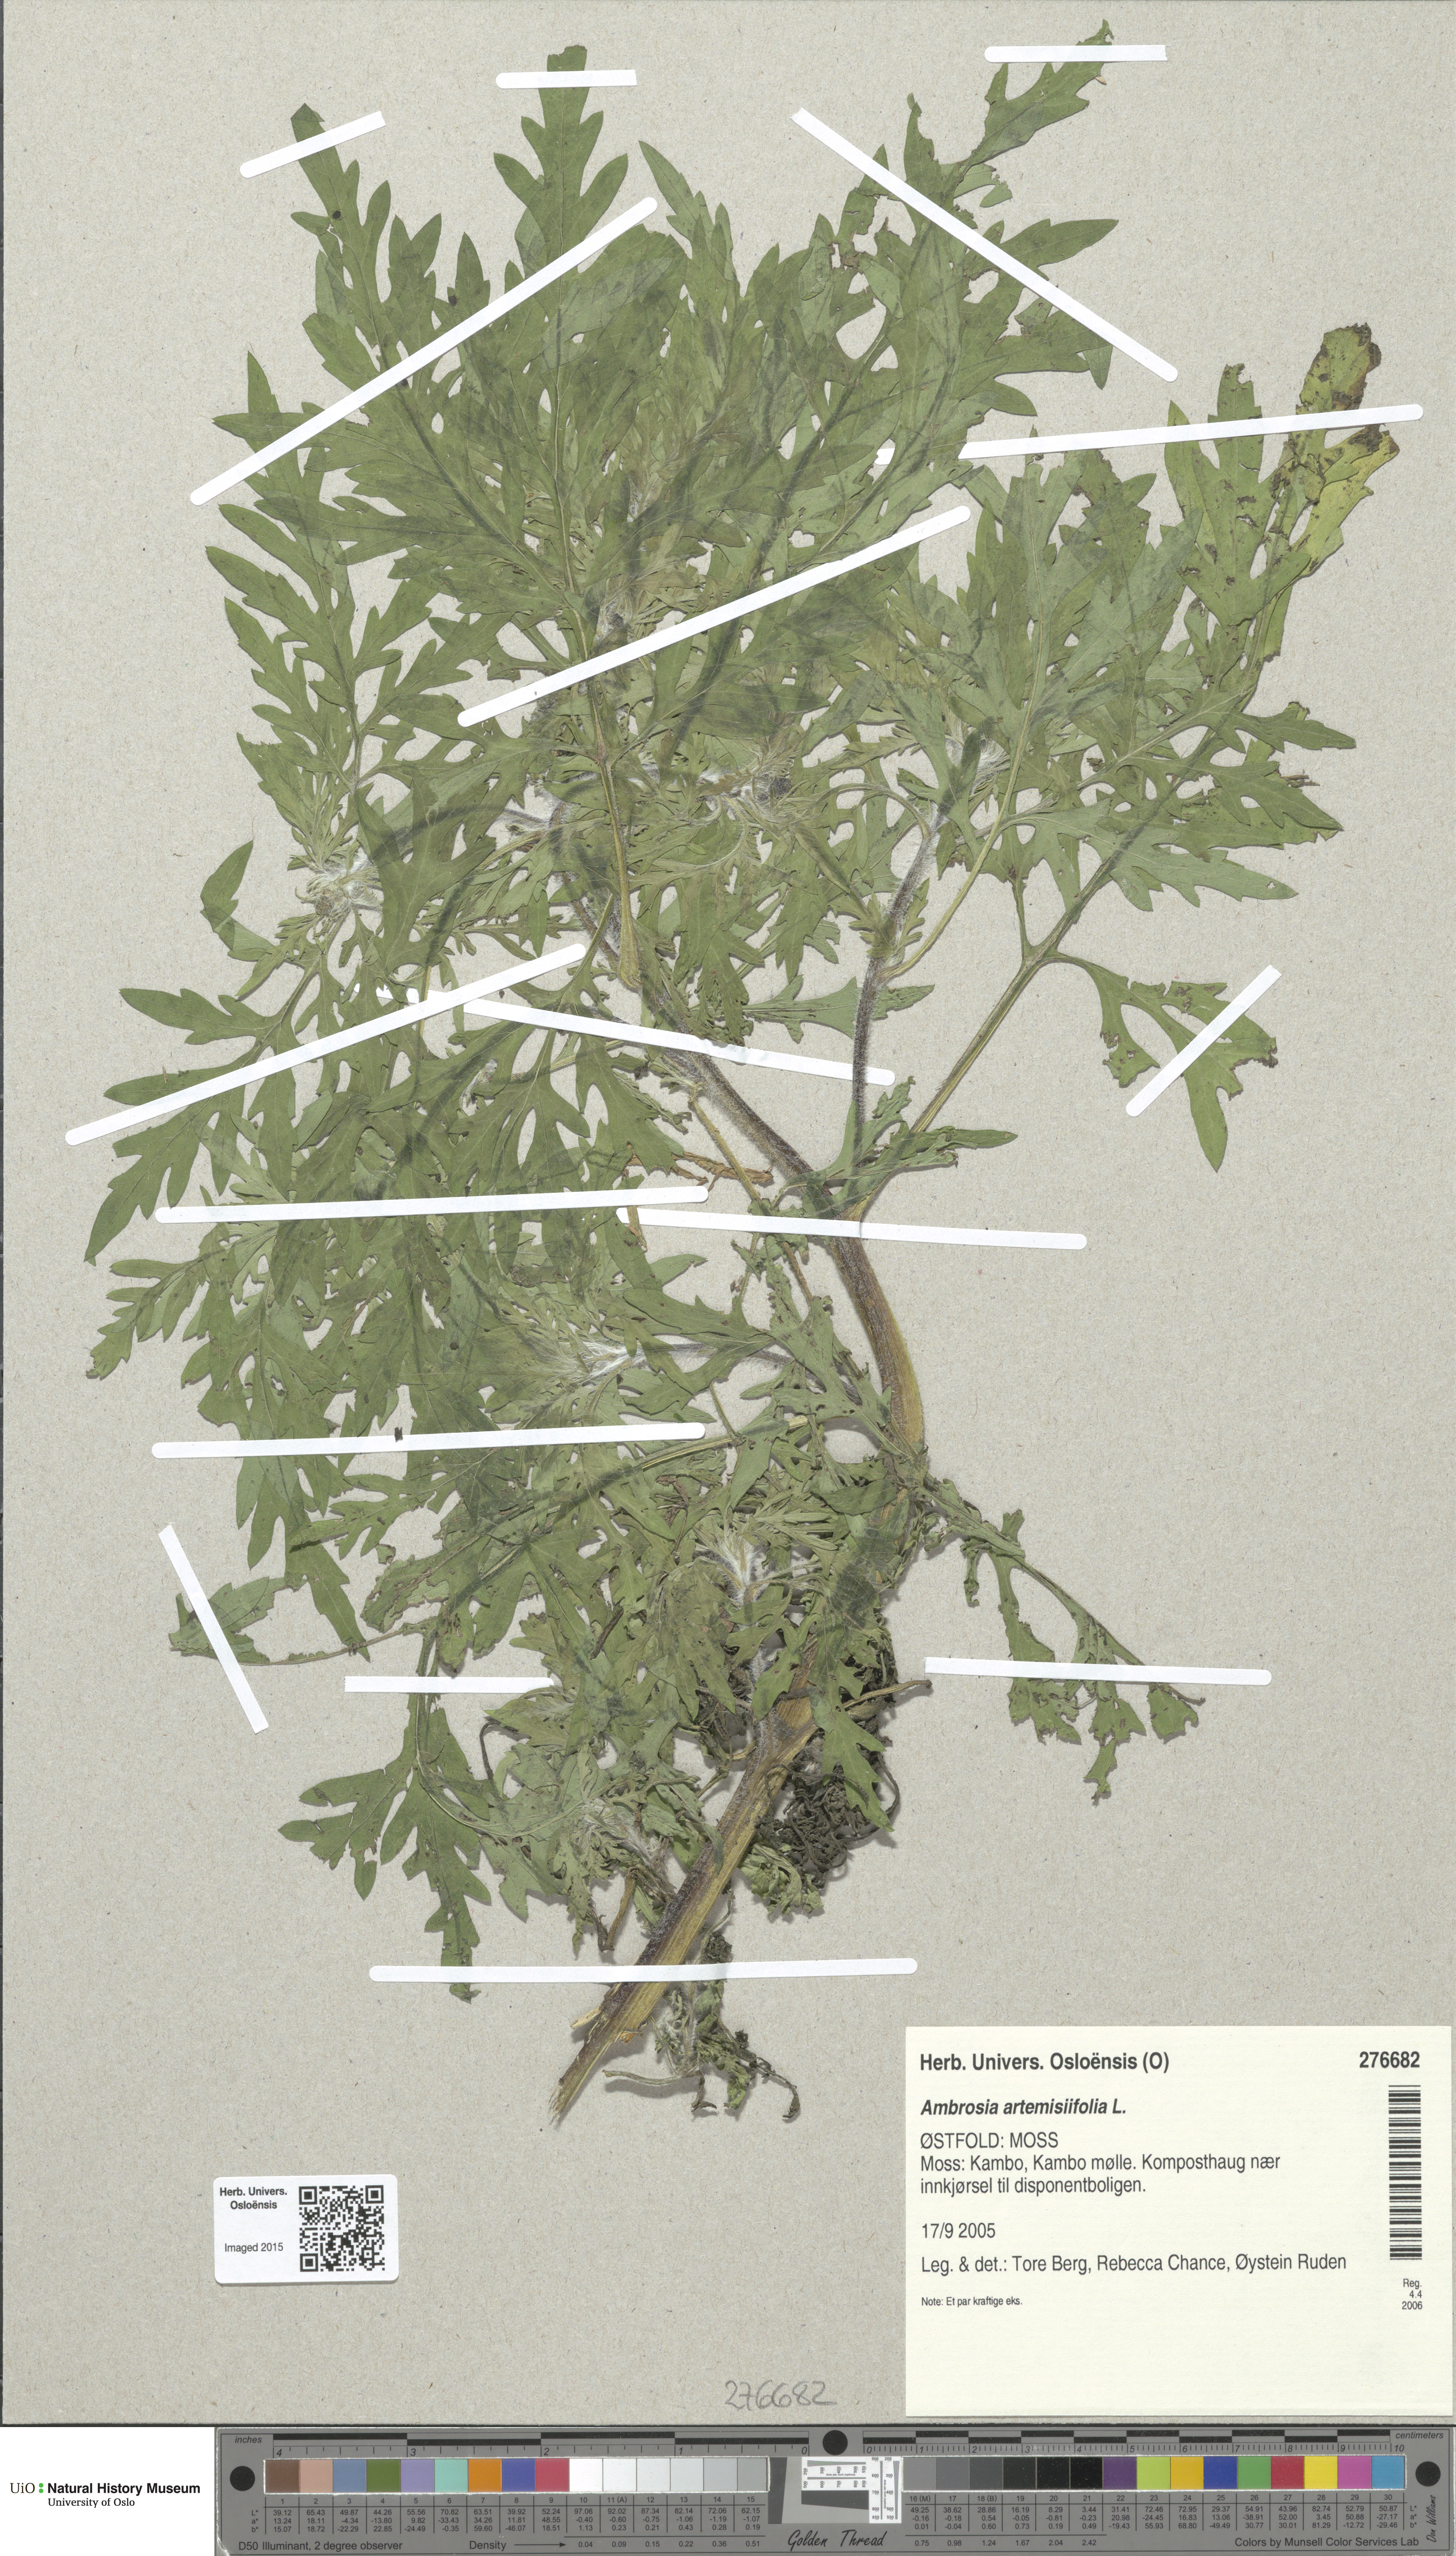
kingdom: Plantae
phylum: Tracheophyta
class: Magnoliopsida
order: Asterales
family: Asteraceae
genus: Ambrosia
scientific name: Ambrosia artemisiifolia
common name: Annual ragweed
